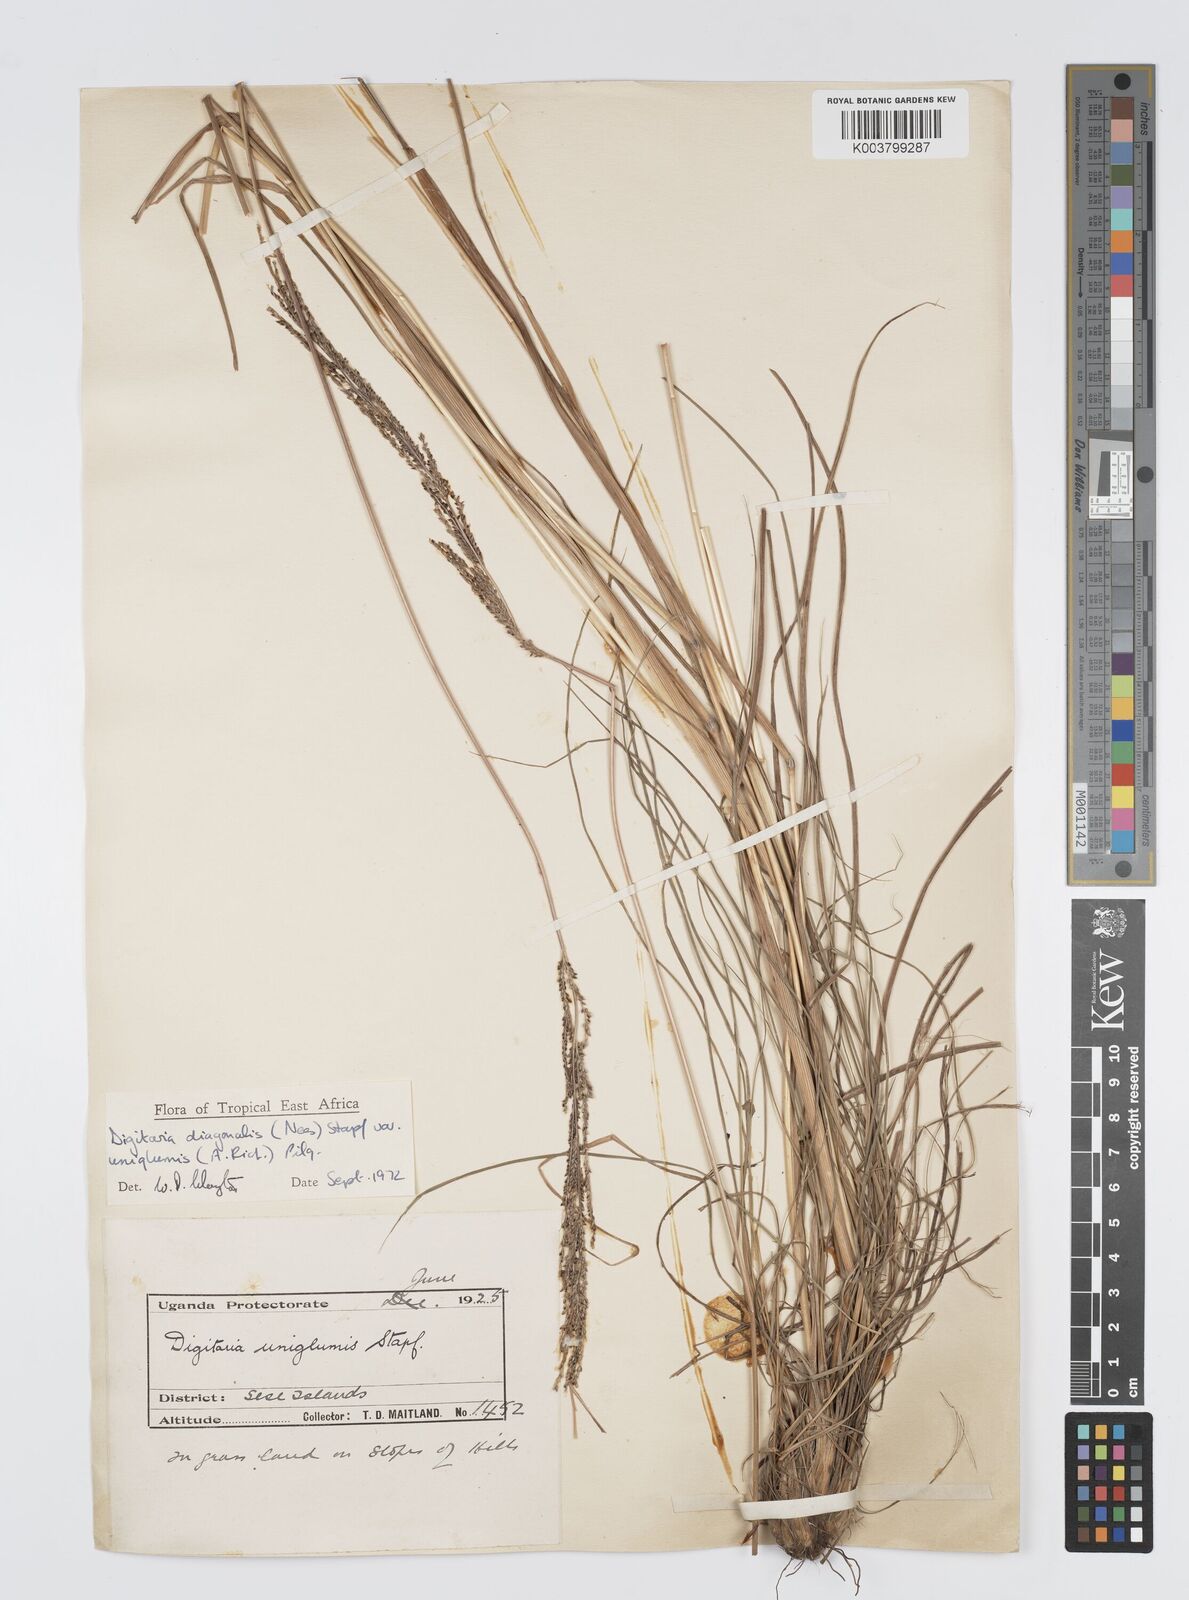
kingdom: Plantae
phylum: Tracheophyta
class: Liliopsida
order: Poales
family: Poaceae
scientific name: Poaceae
